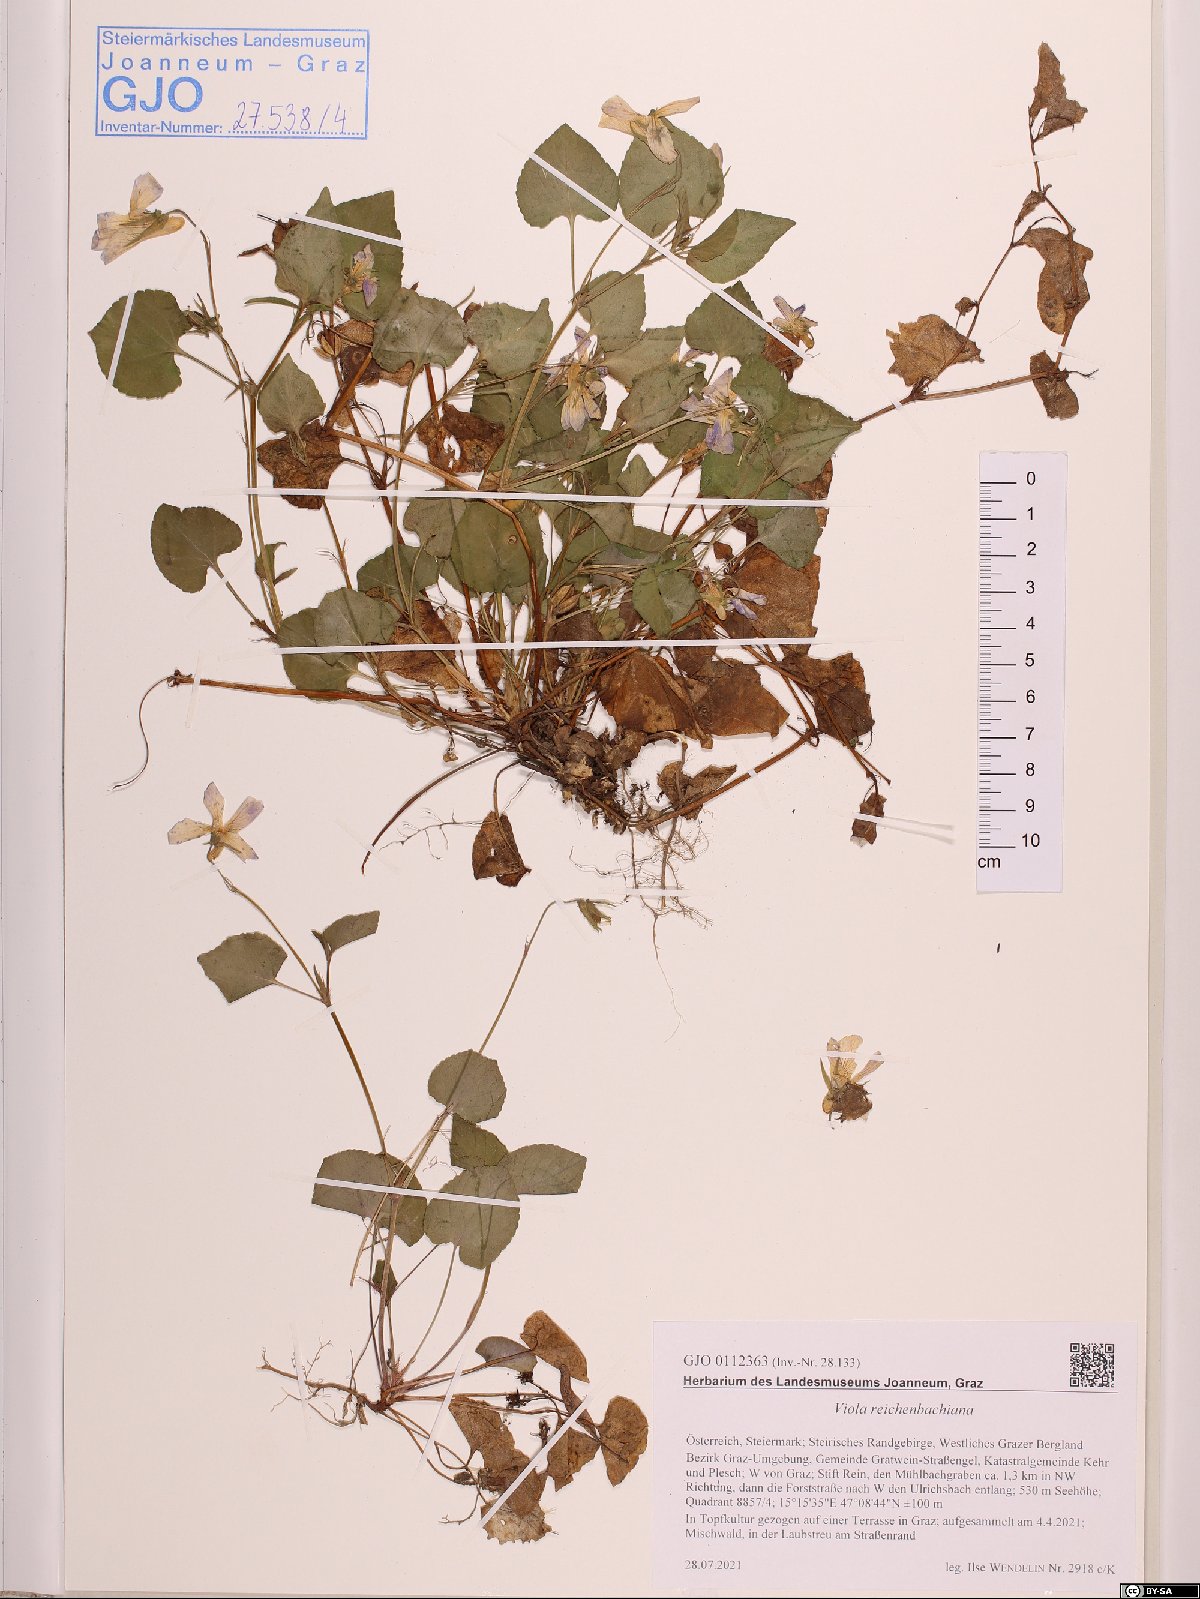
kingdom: Plantae
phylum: Tracheophyta
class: Magnoliopsida
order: Malpighiales
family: Violaceae
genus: Viola
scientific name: Viola reichenbachiana
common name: Early dog-violet
